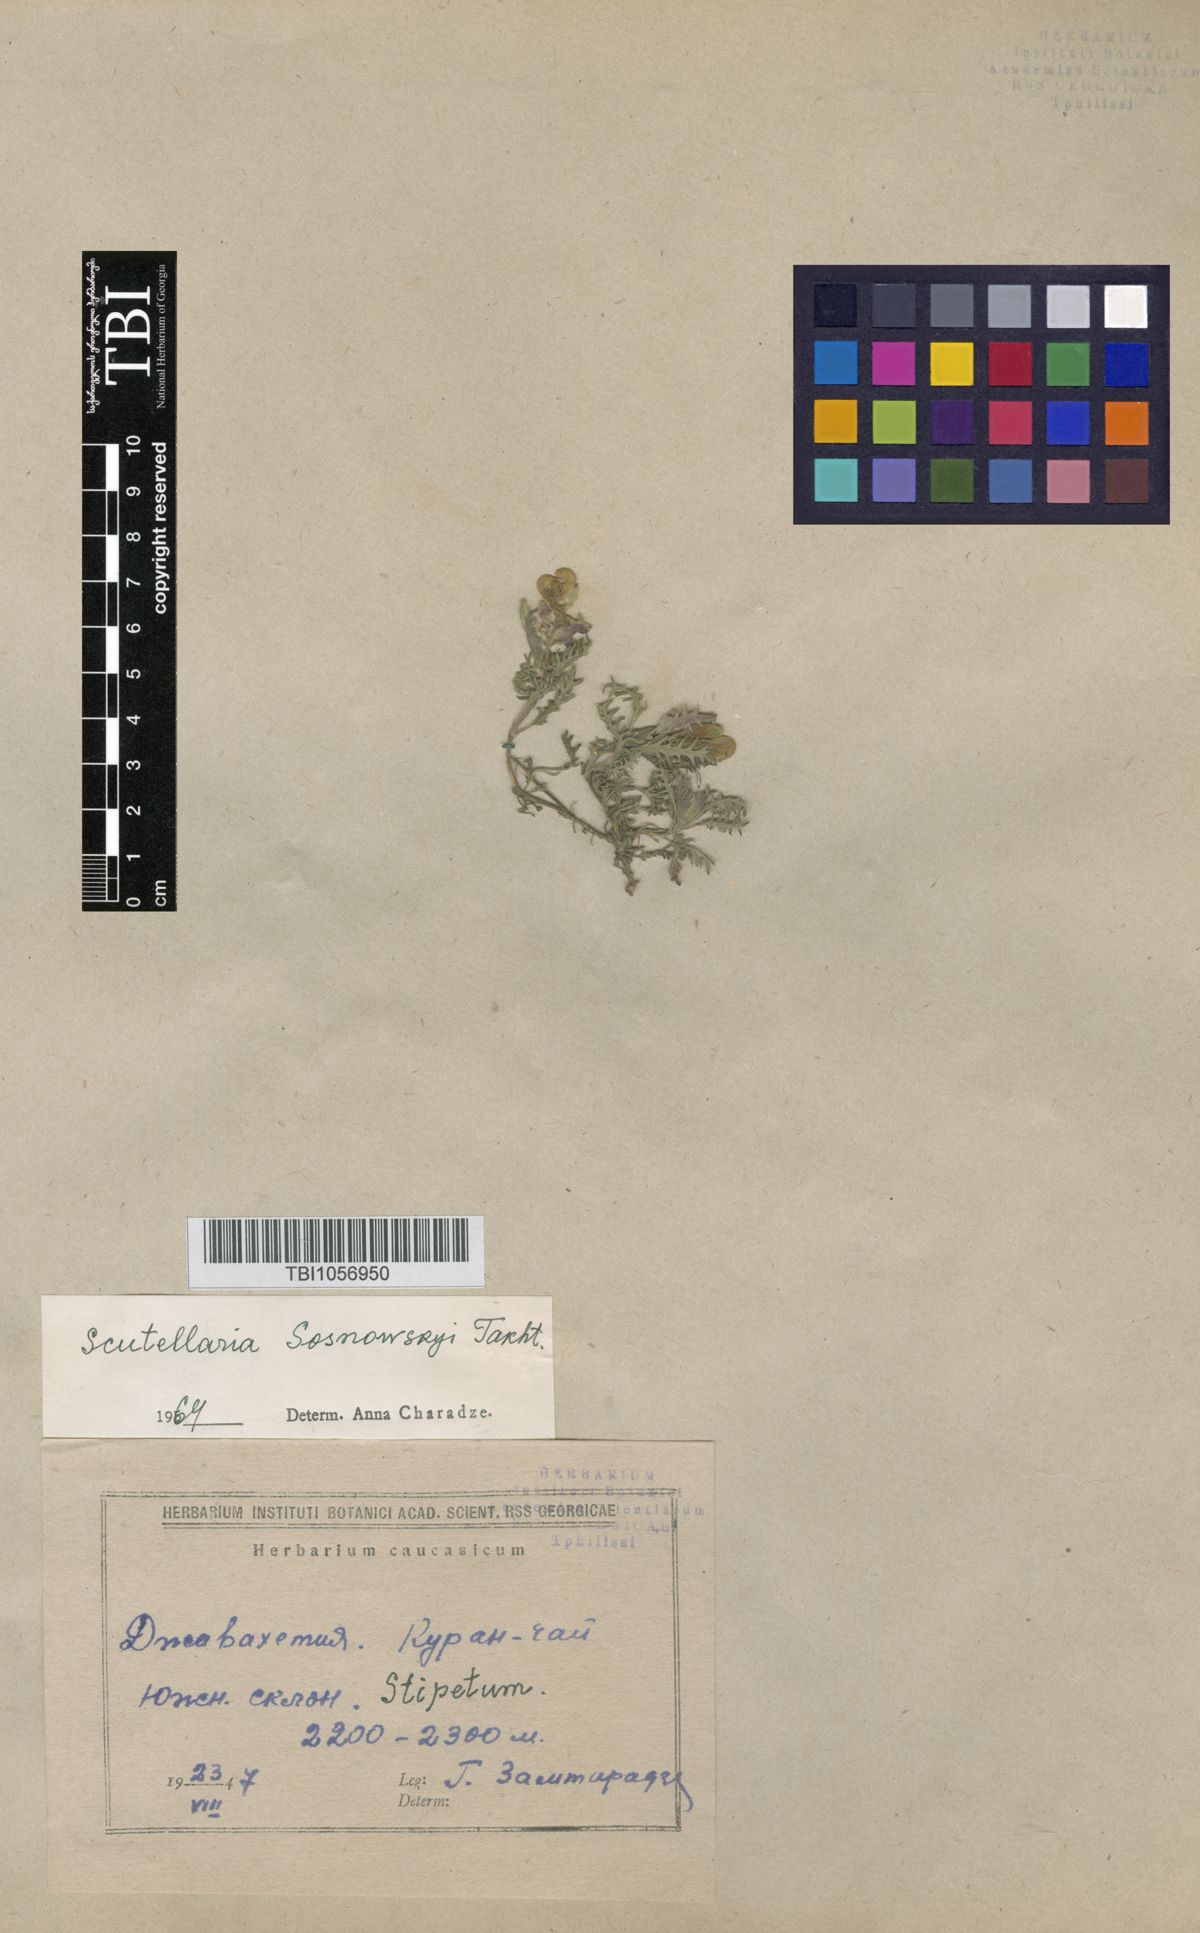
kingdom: Plantae
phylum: Tracheophyta
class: Magnoliopsida
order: Lamiales
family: Lamiaceae
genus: Scutellaria
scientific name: Scutellaria sosnowskyi
